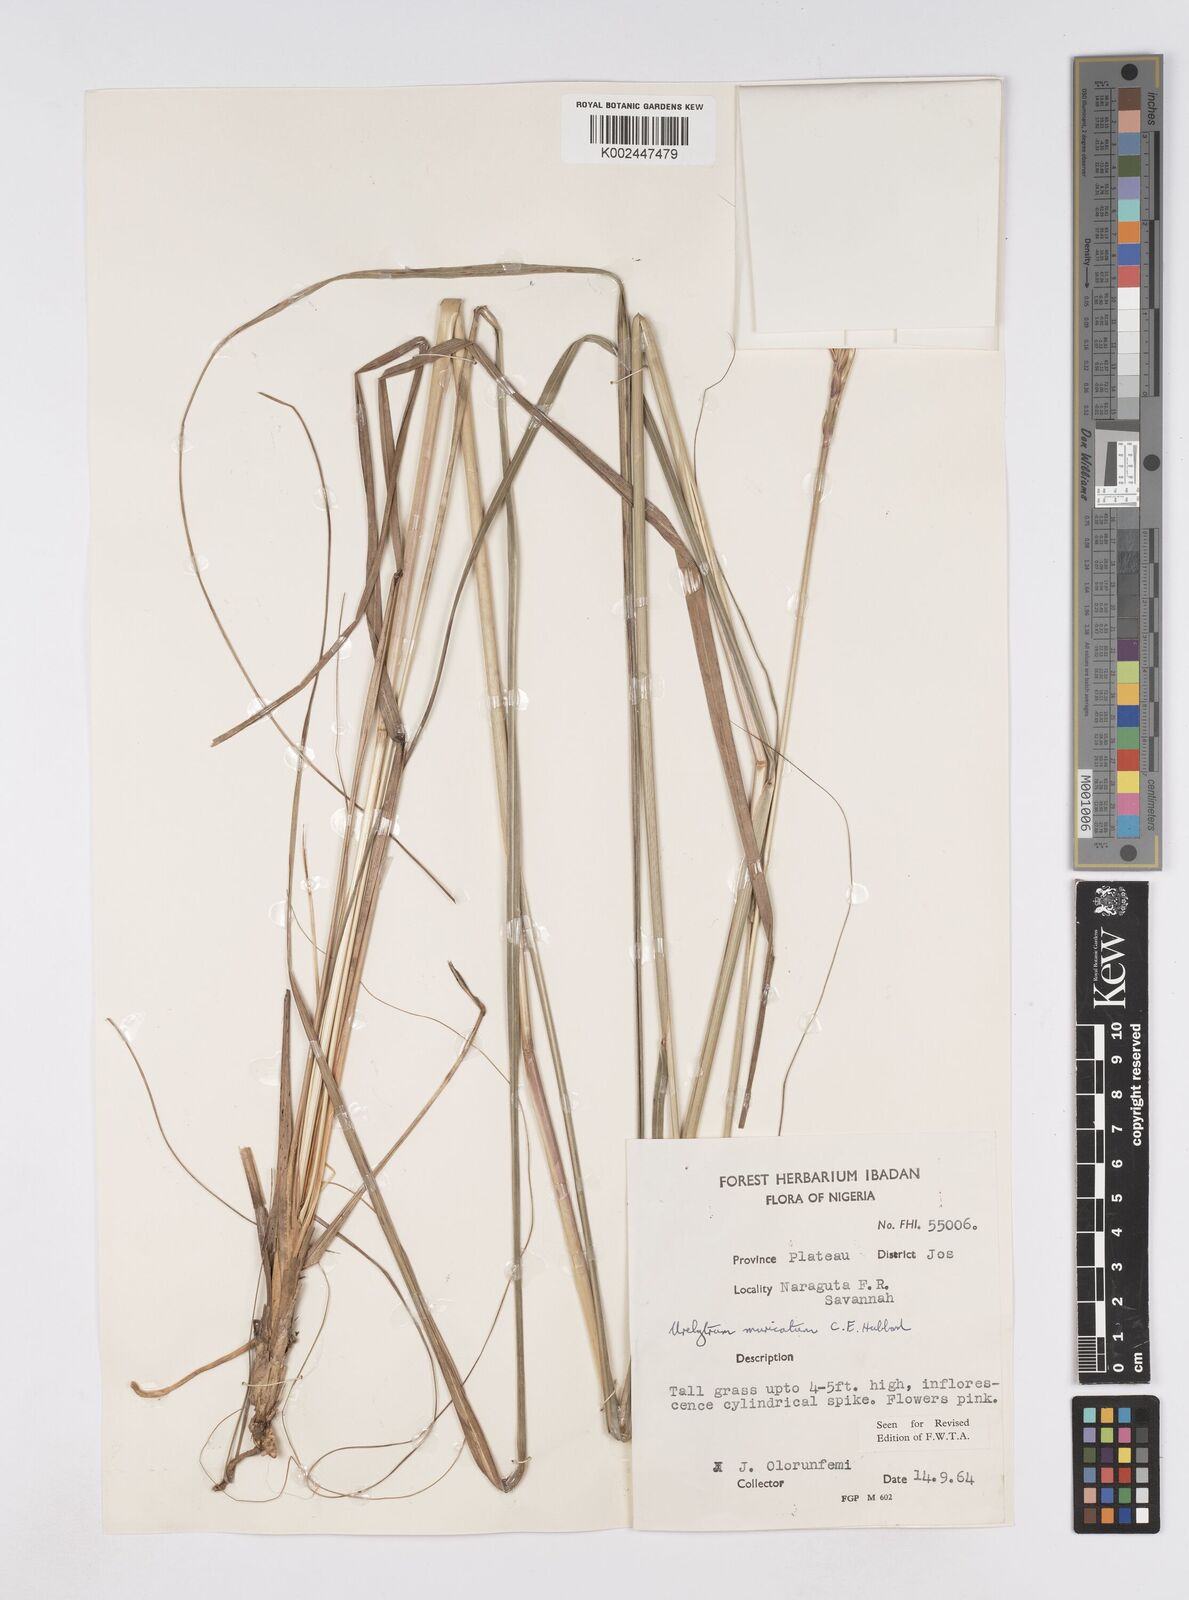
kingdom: Plantae
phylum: Tracheophyta
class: Liliopsida
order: Poales
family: Poaceae
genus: Urelytrum
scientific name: Urelytrum muricatum
